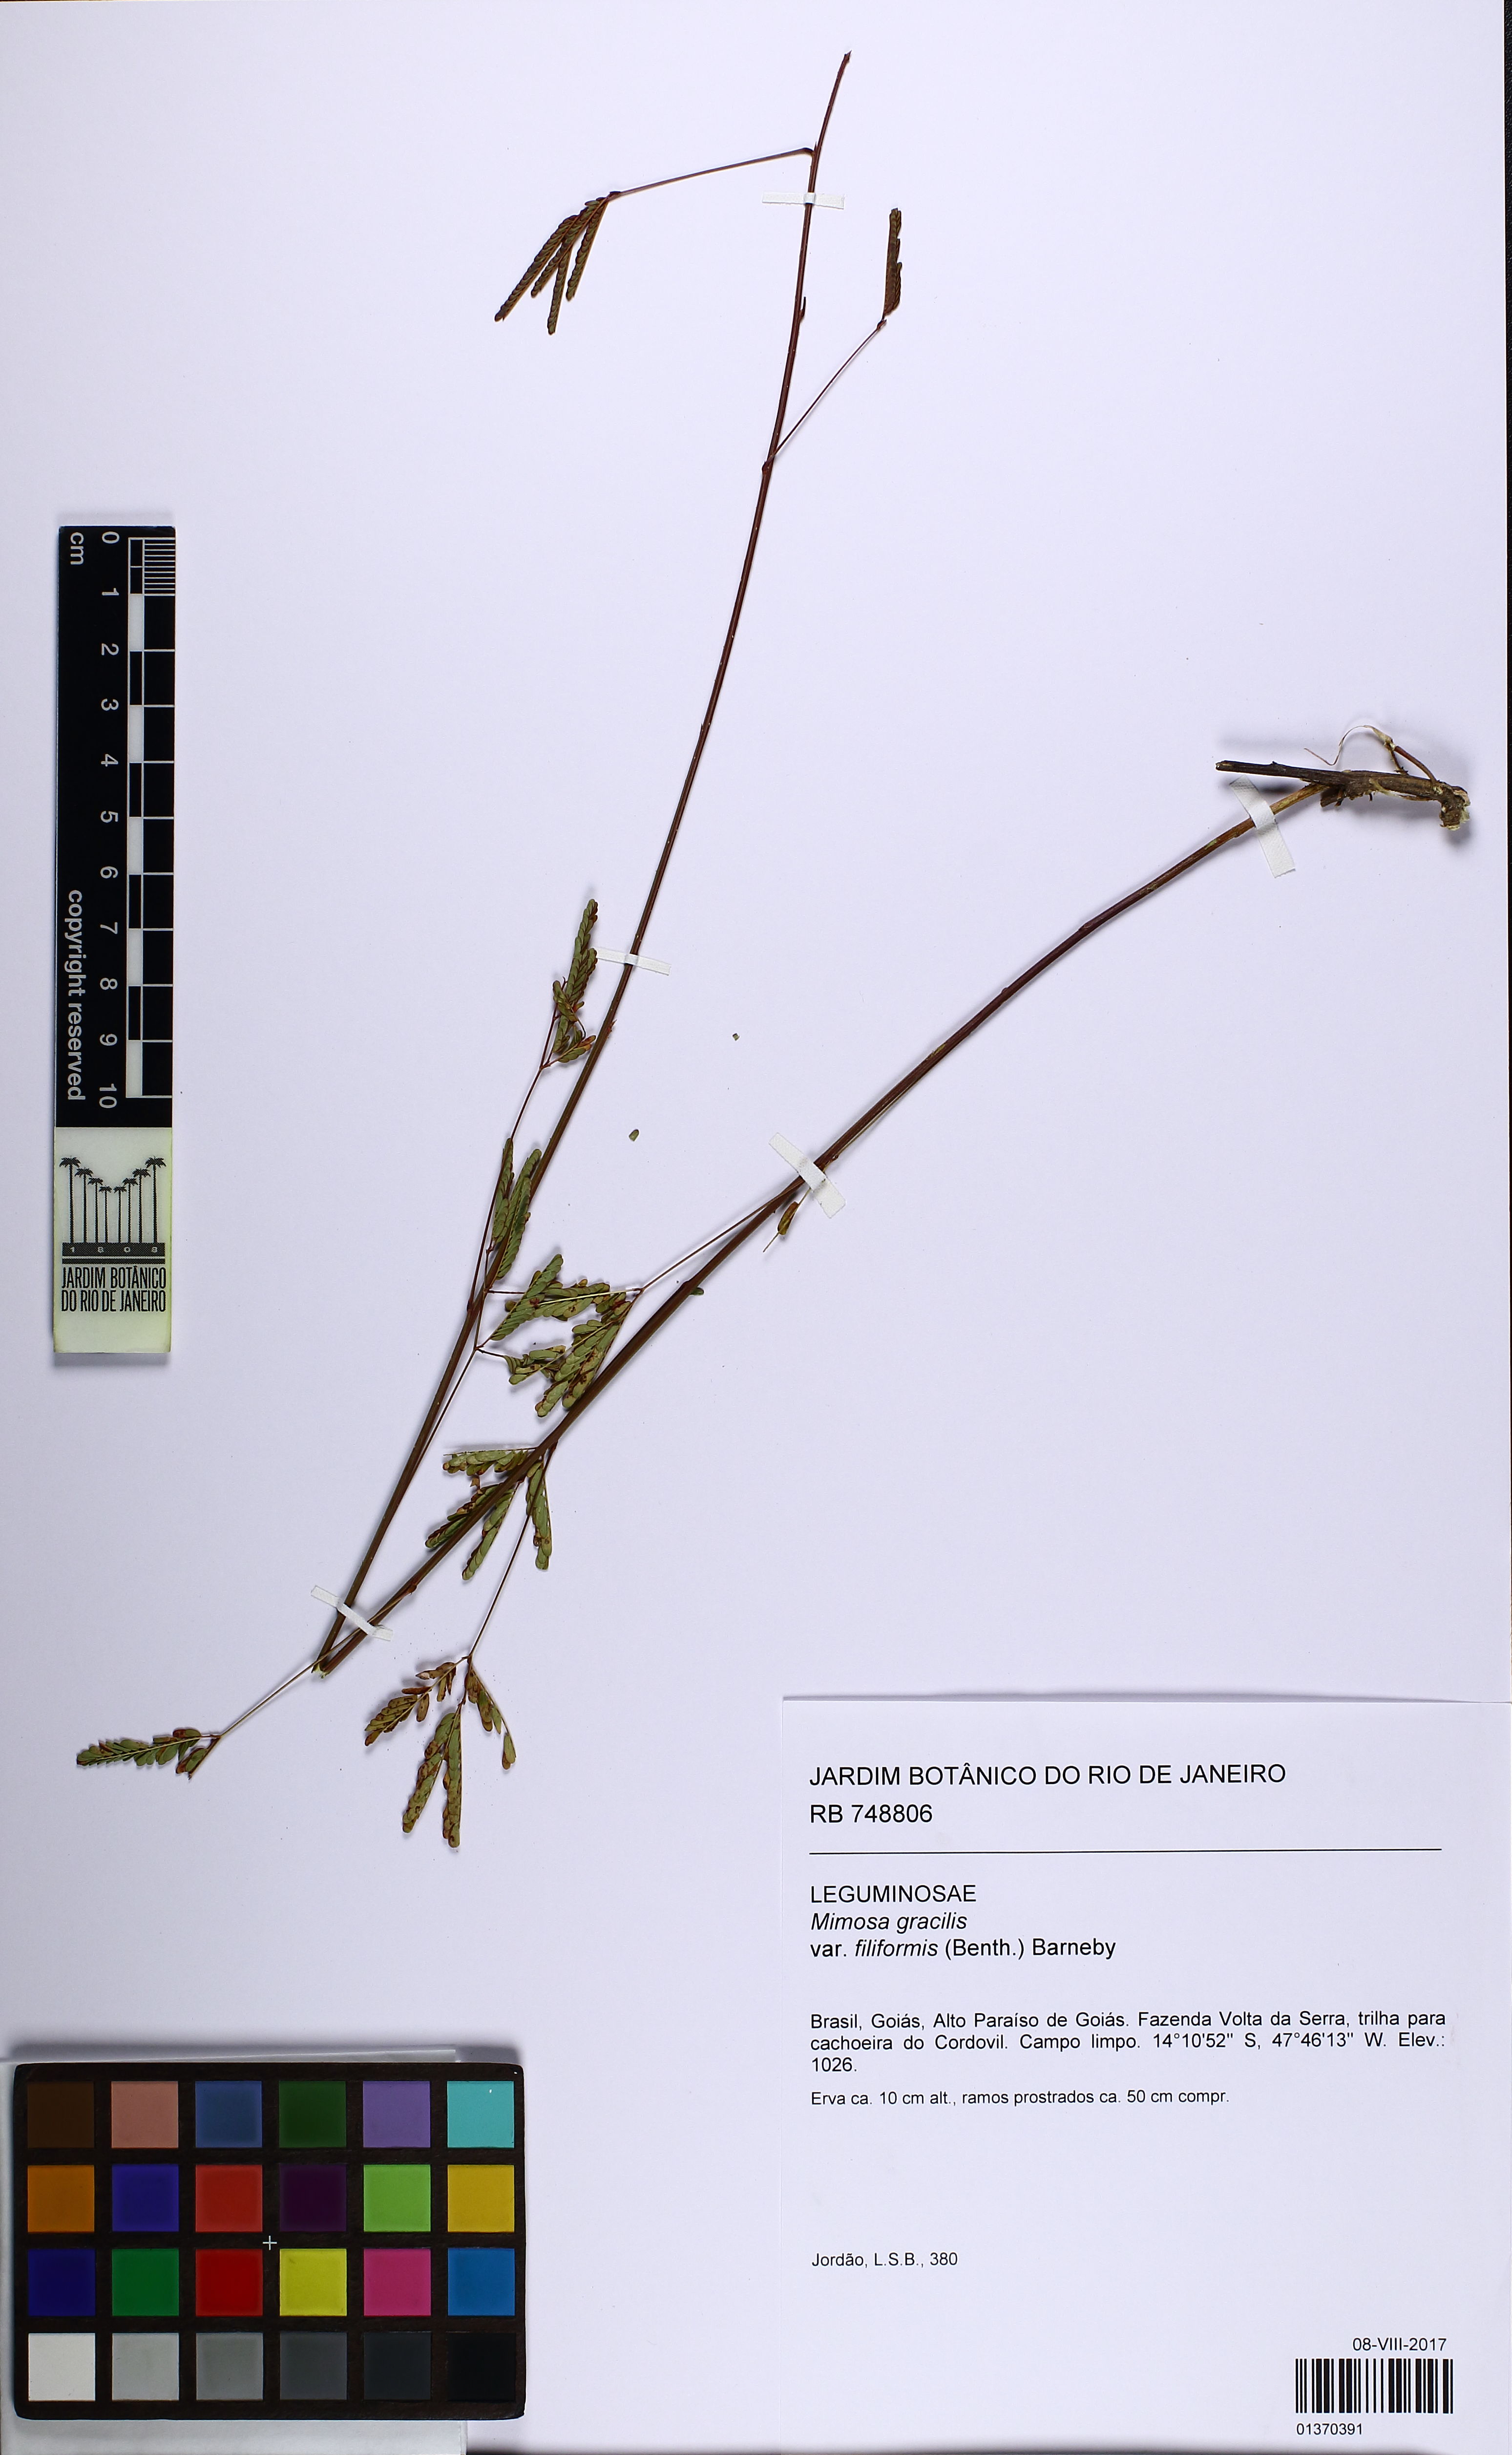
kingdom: Plantae
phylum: Tracheophyta
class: Magnoliopsida
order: Fabales
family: Fabaceae
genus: Mimosa
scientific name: Mimosa gracilis
